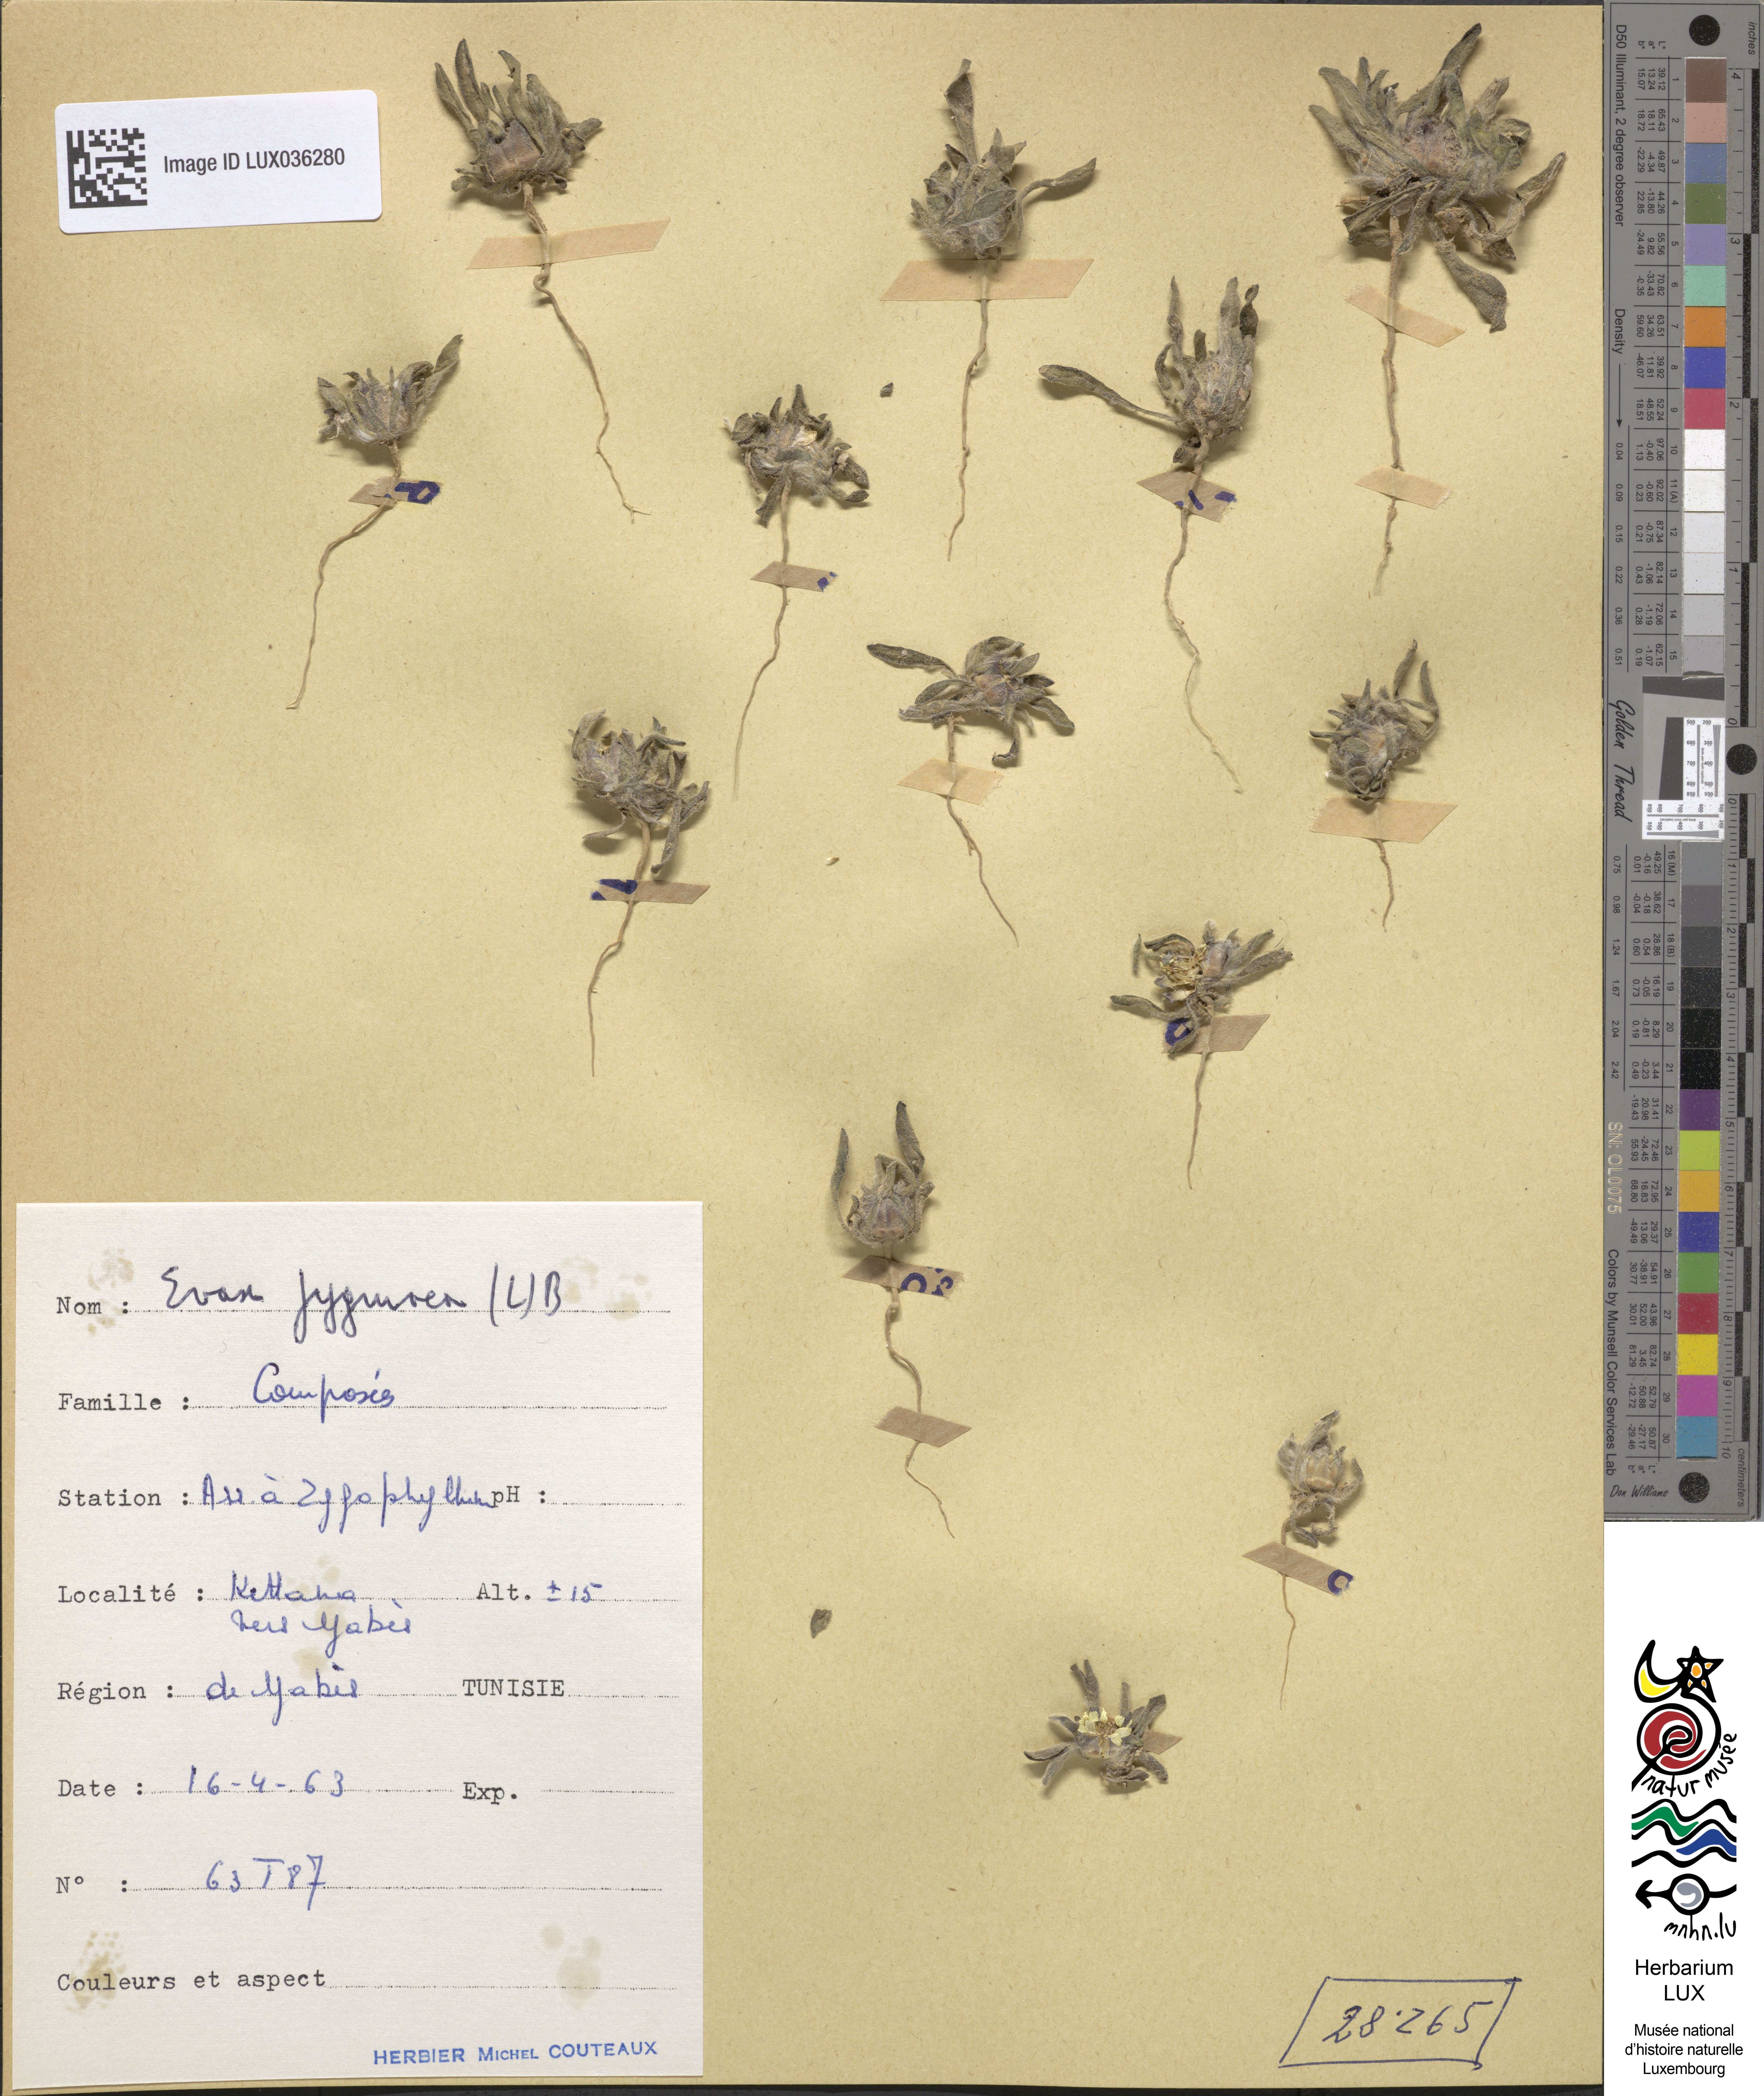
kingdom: Plantae
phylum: Tracheophyta
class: Magnoliopsida
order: Asterales
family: Asteraceae
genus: Filago
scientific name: Filago pygmaea
